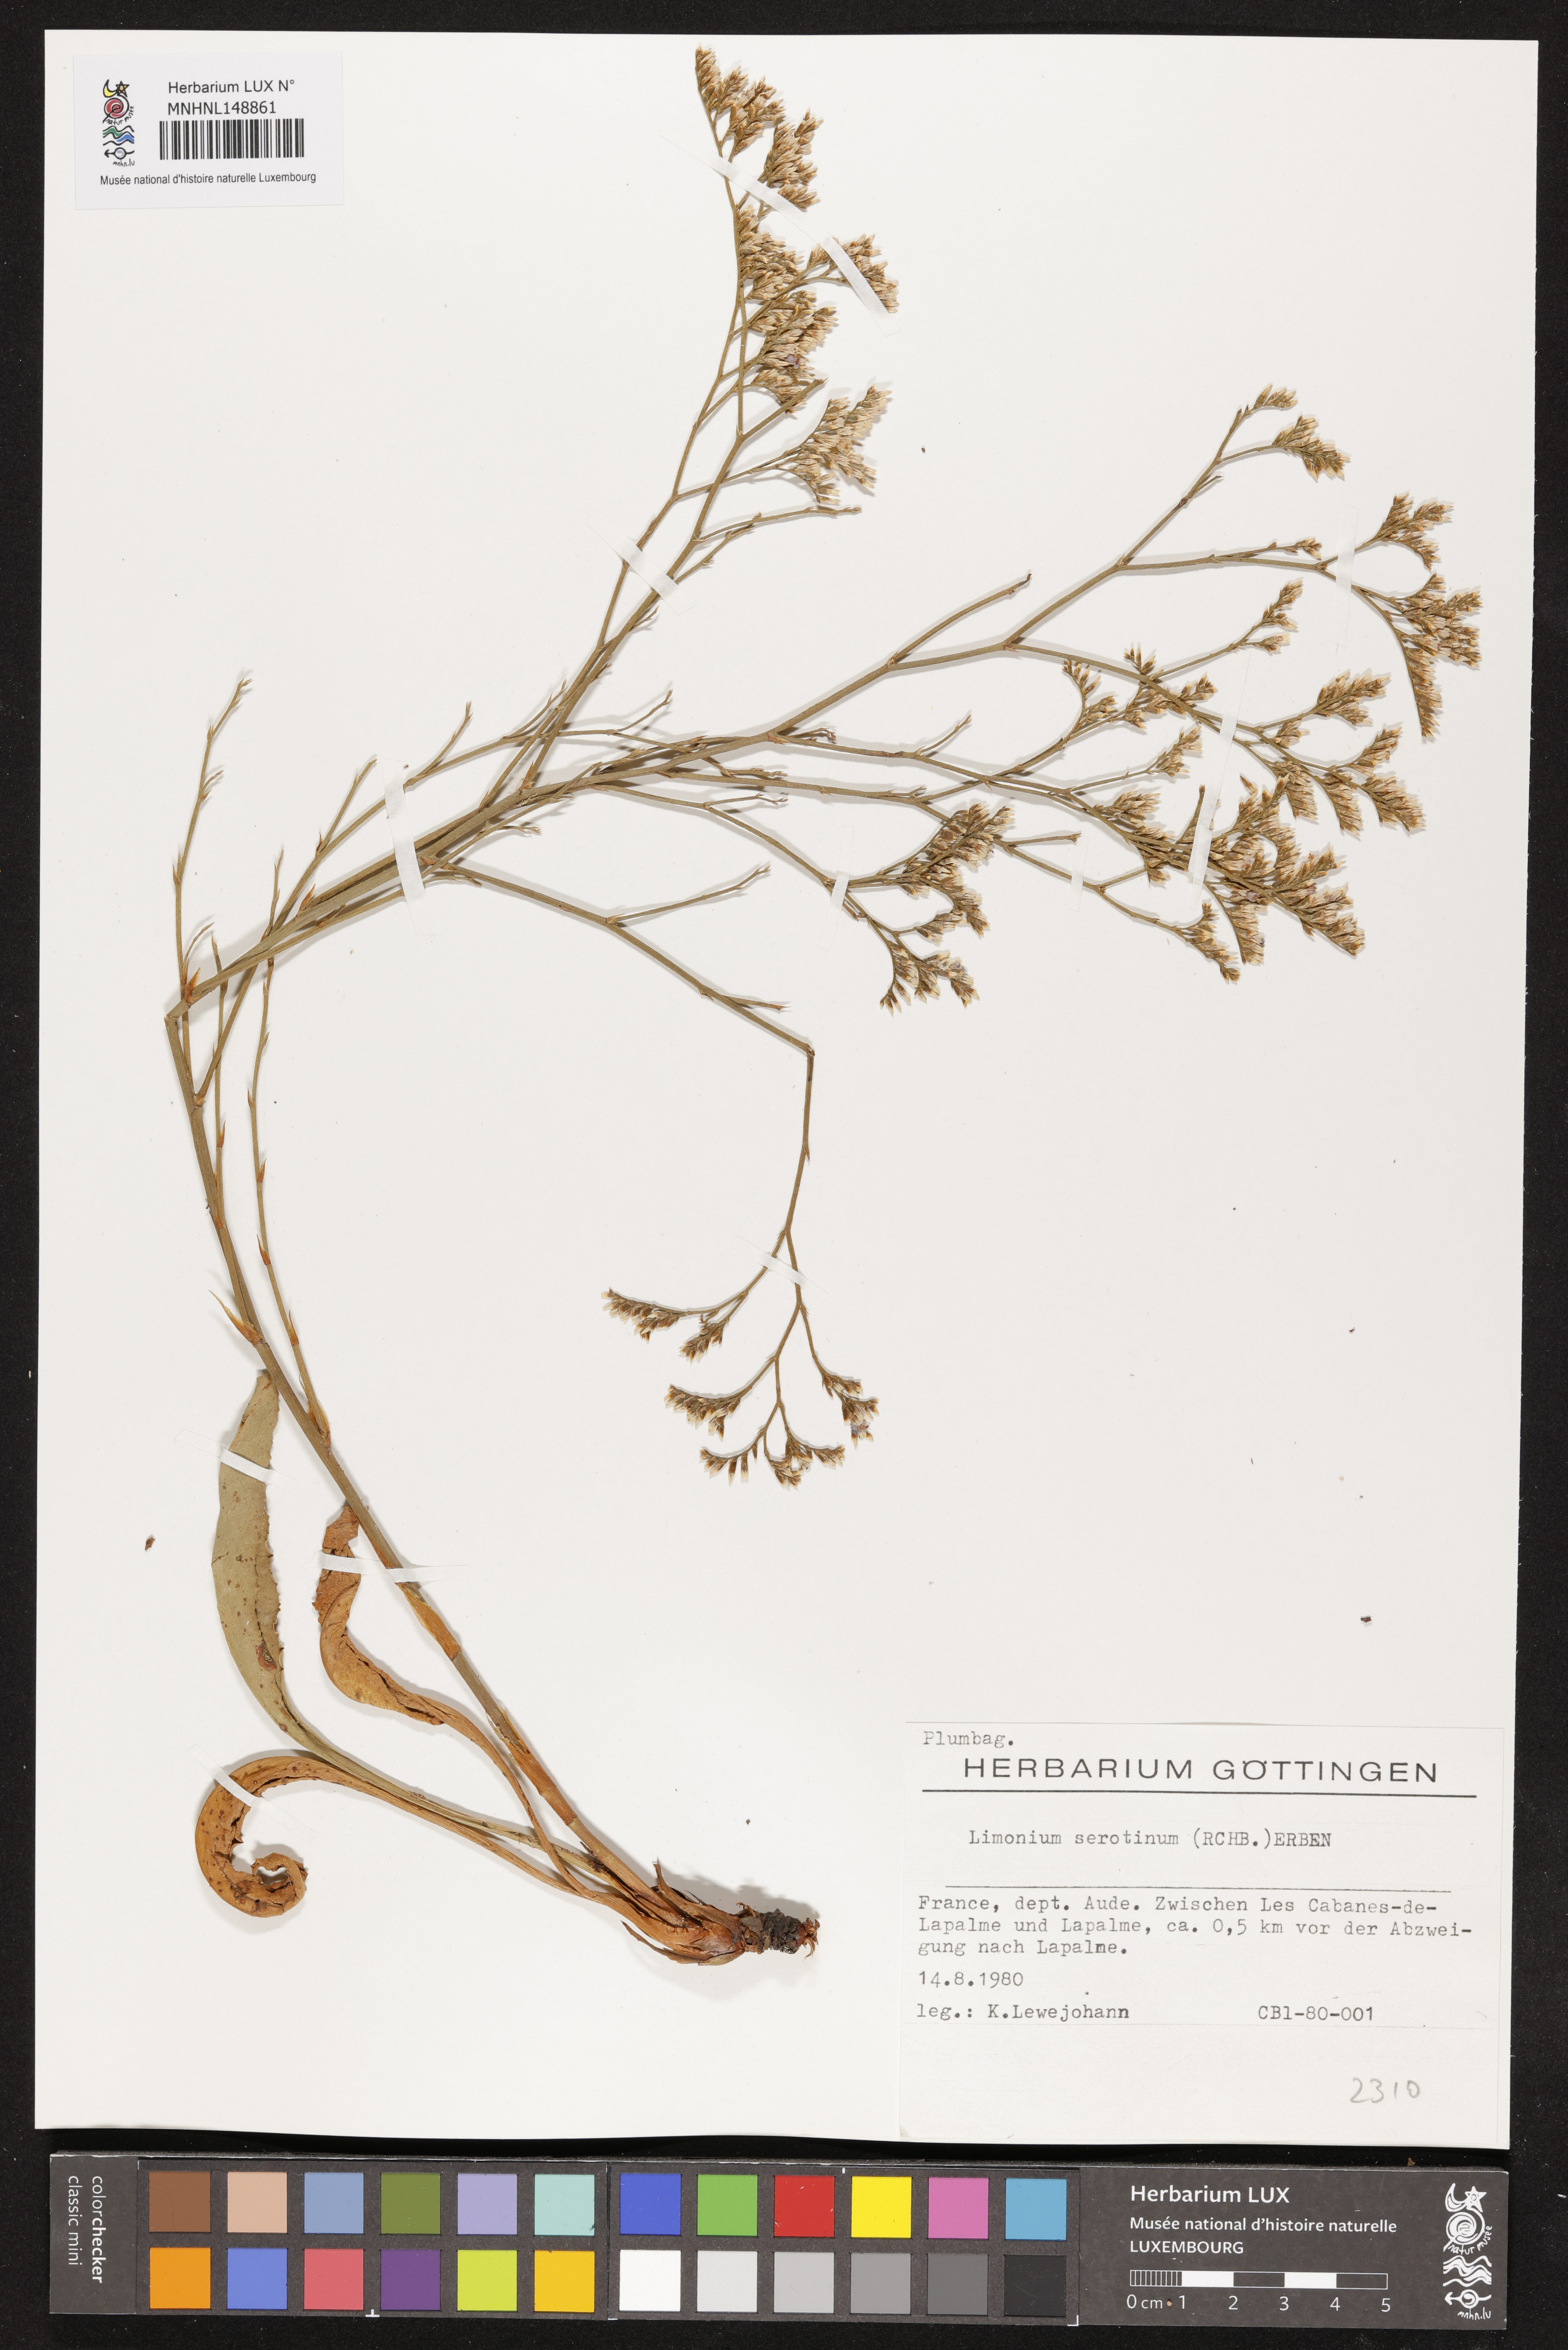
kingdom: Plantae
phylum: Tracheophyta
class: Magnoliopsida
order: Caryophyllales
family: Plumbaginaceae
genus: Limonium
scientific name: Limonium narbonense
